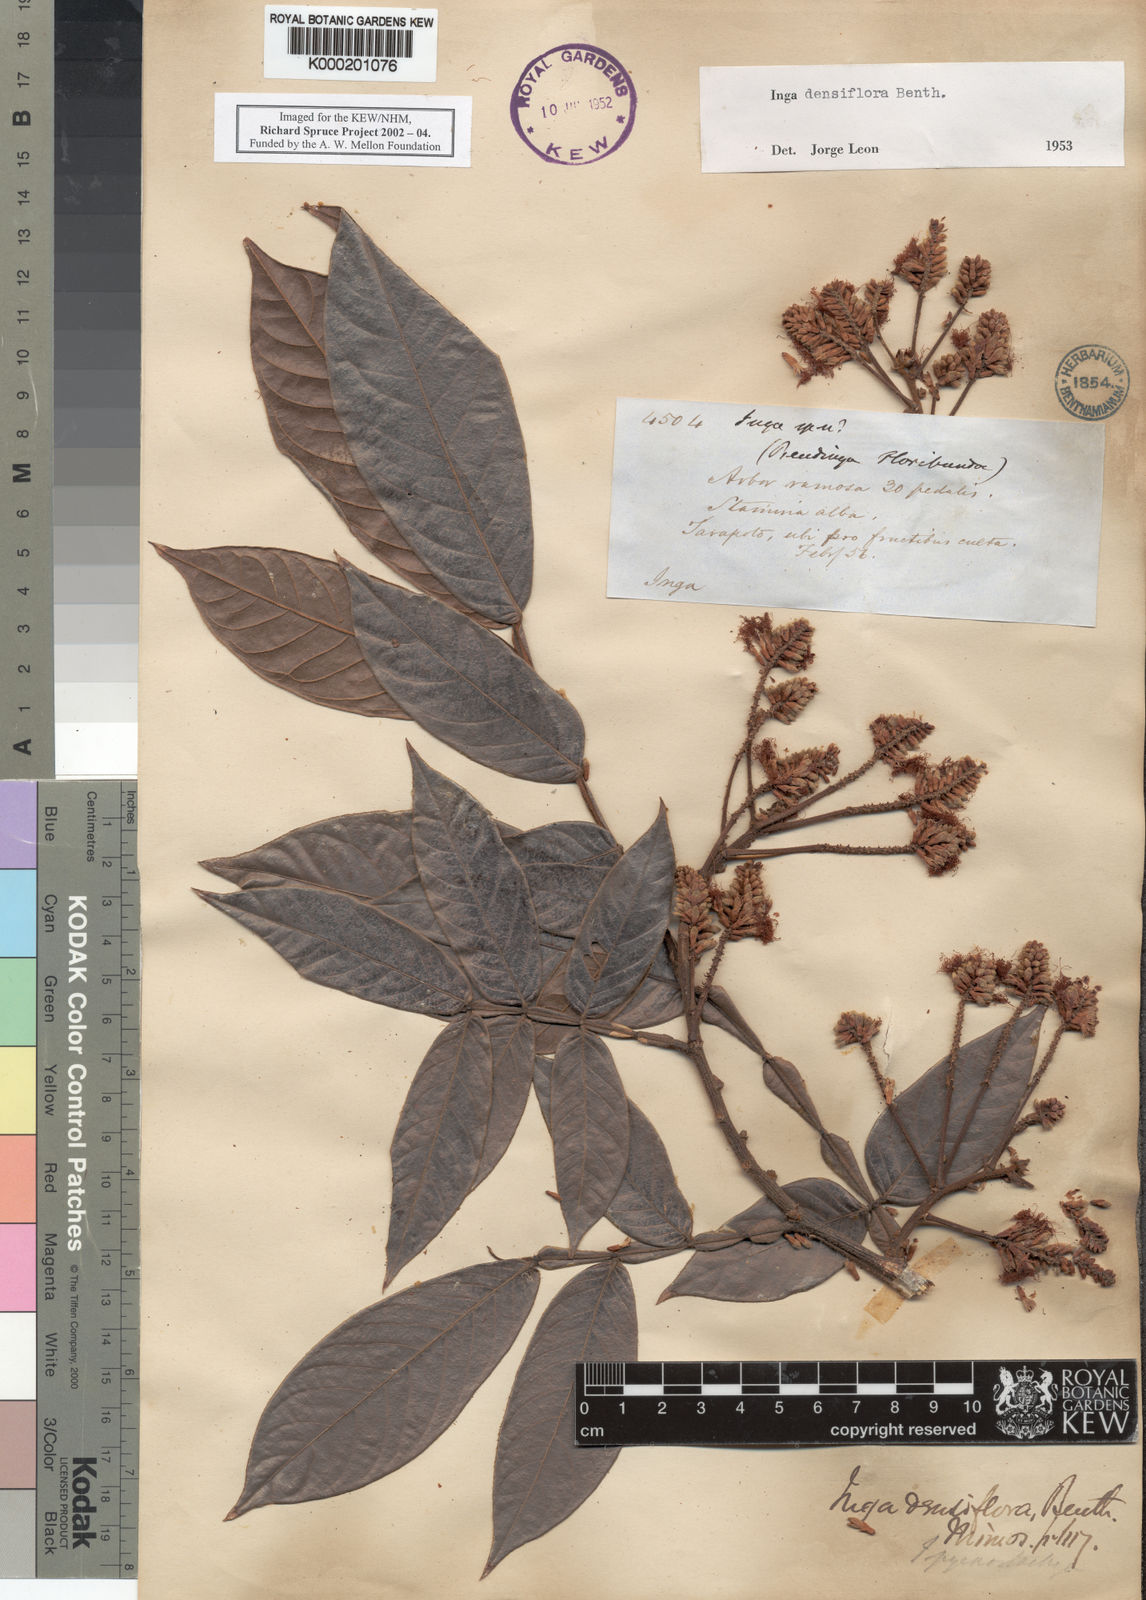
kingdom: Plantae
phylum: Tracheophyta
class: Magnoliopsida
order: Fabales
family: Fabaceae
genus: Inga
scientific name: Inga densiflora
